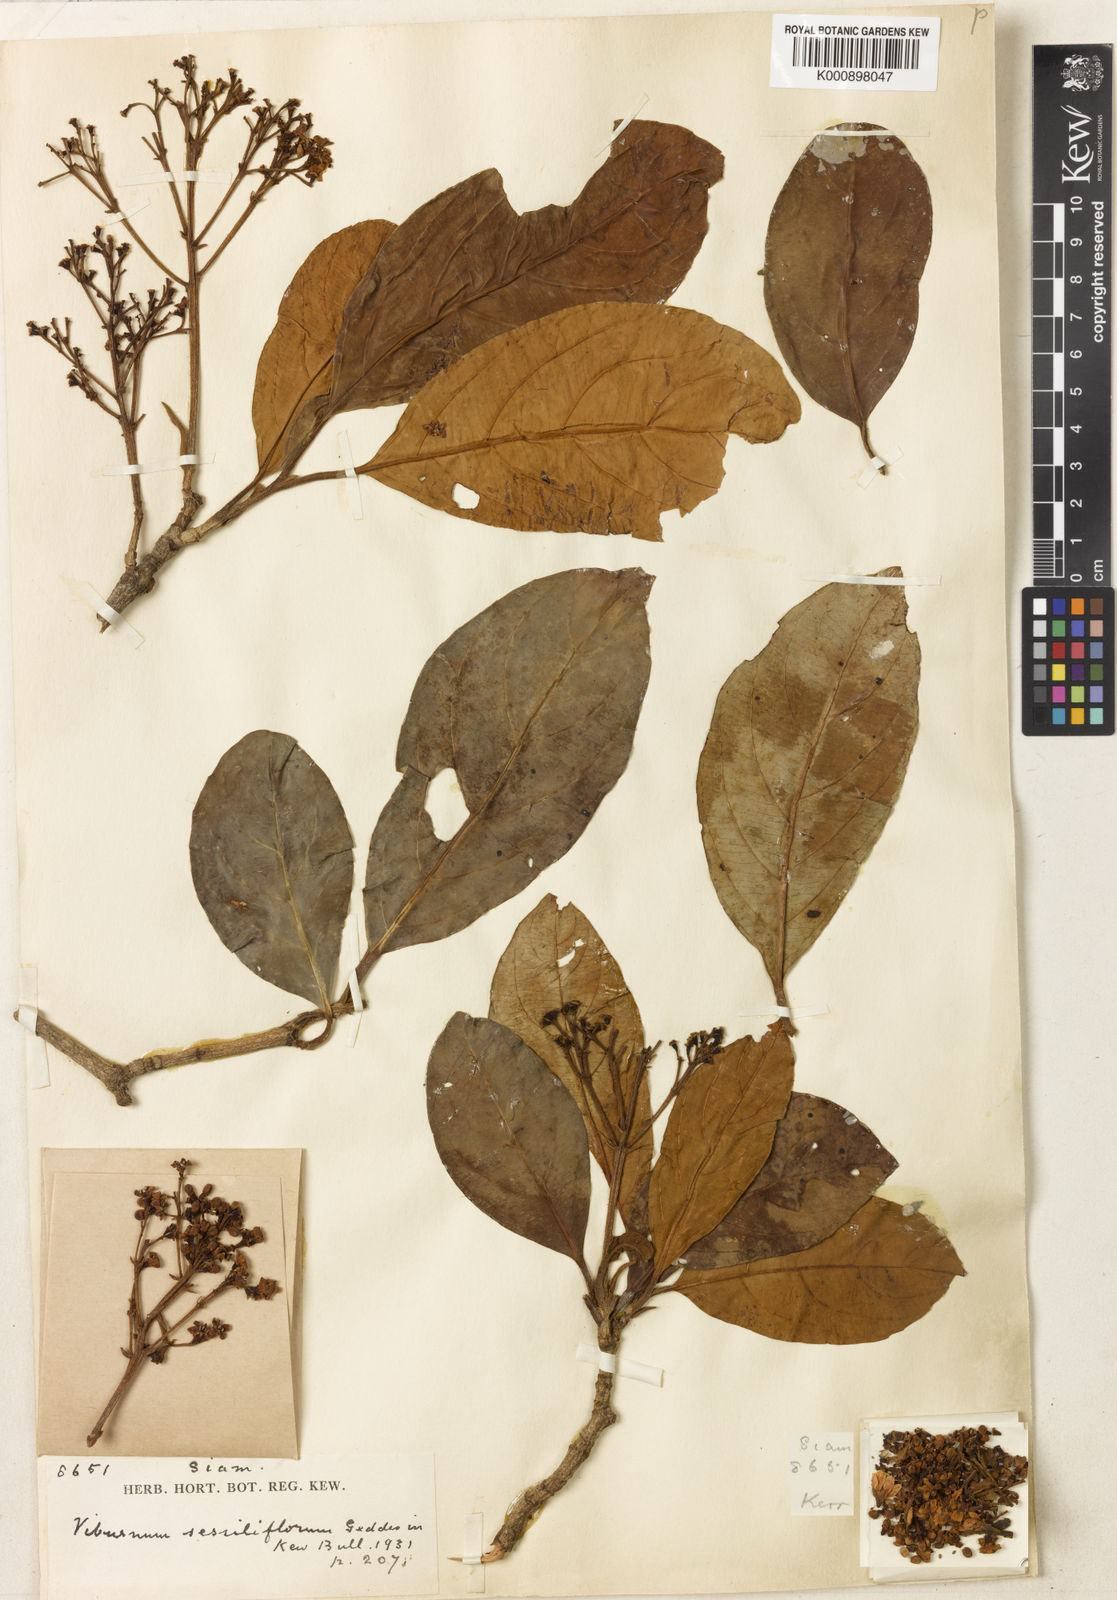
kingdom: Plantae
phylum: Tracheophyta
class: Magnoliopsida
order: Dipsacales
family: Viburnaceae
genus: Viburnum
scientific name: Viburnum odoratissimum
